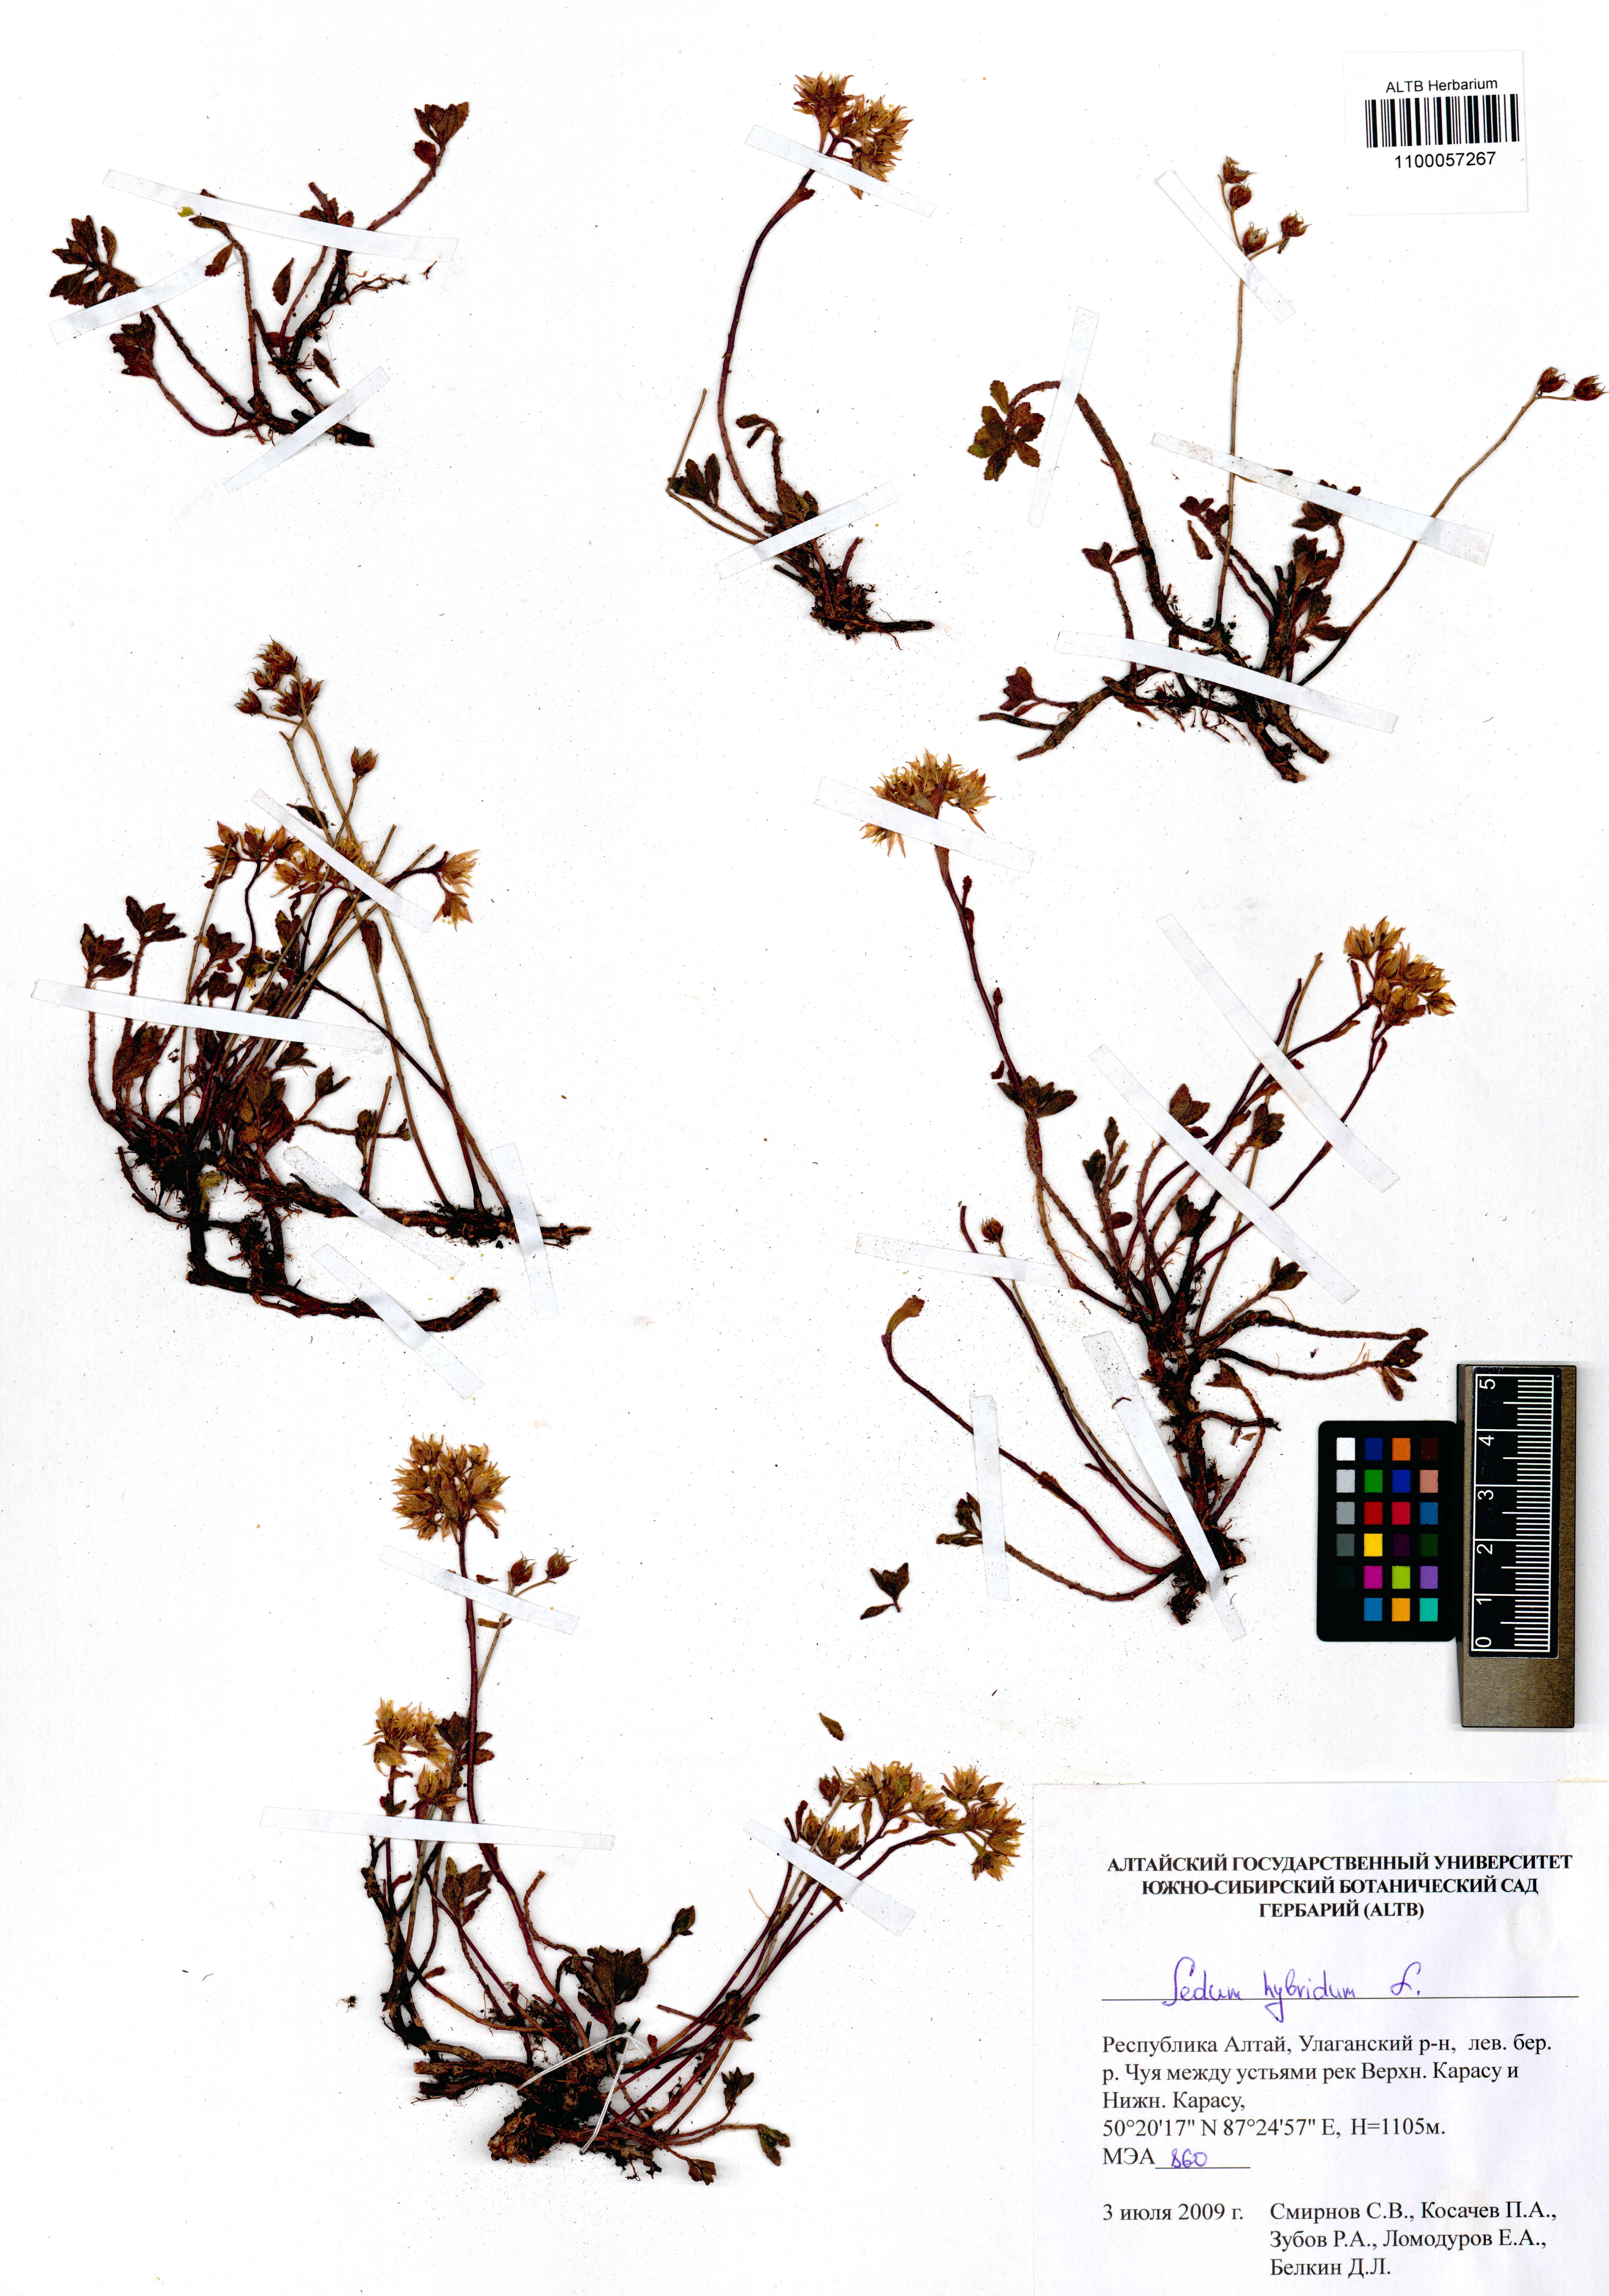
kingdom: Plantae
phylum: Tracheophyta
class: Magnoliopsida
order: Saxifragales
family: Crassulaceae
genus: Phedimus
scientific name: Phedimus hybridus
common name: Hybrid stonecrop
